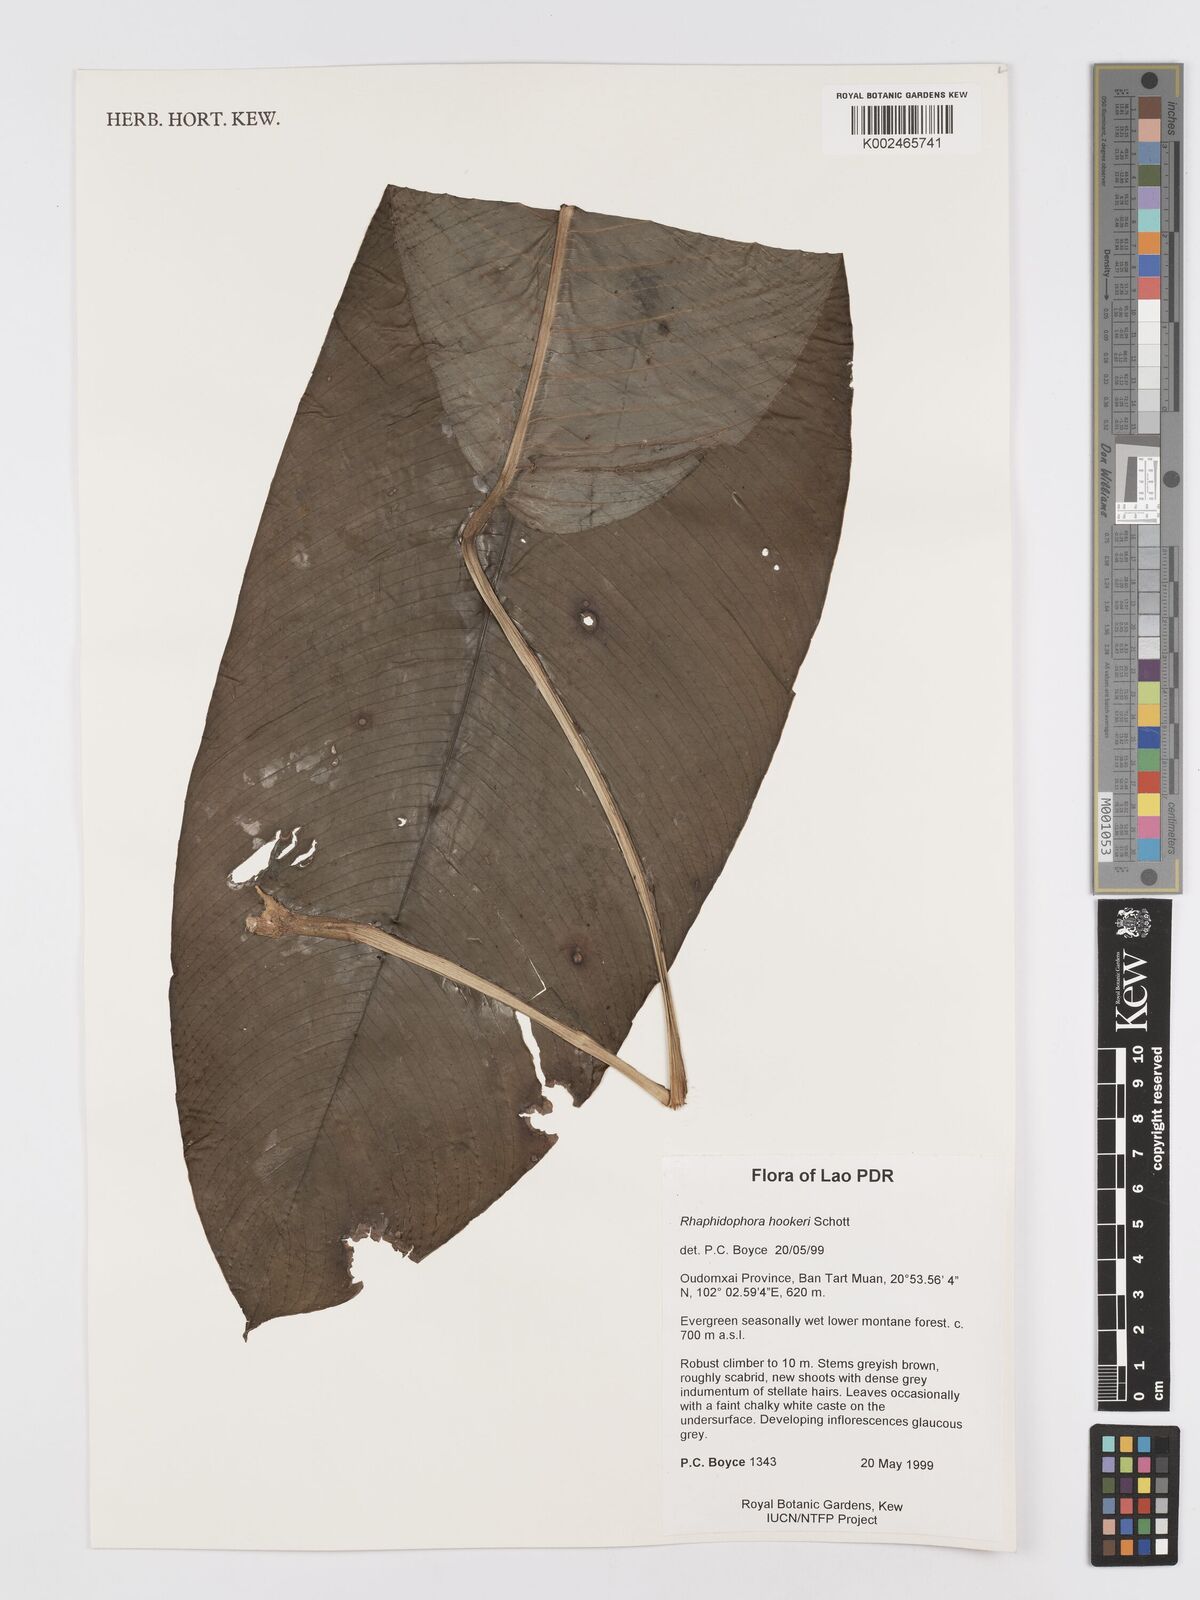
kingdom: Plantae
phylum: Tracheophyta
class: Liliopsida
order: Alismatales
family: Araceae
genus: Rhaphidophora
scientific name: Rhaphidophora hookeri
